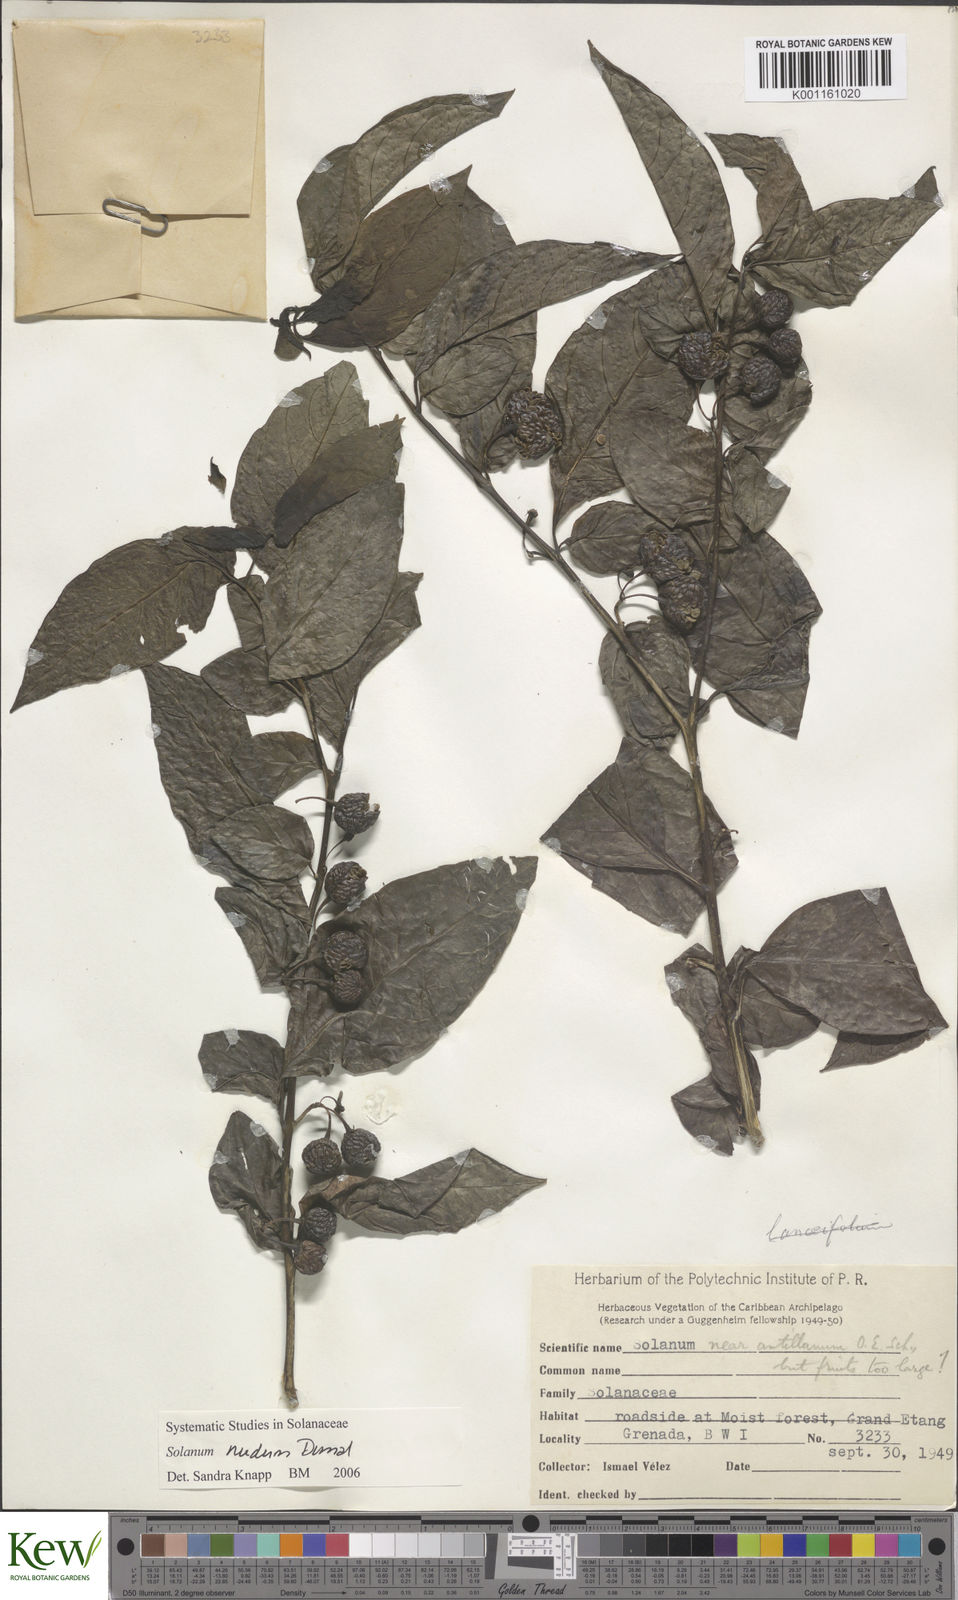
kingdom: Plantae
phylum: Tracheophyta
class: Magnoliopsida
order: Solanales
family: Solanaceae
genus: Solanum
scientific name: Solanum nudum
